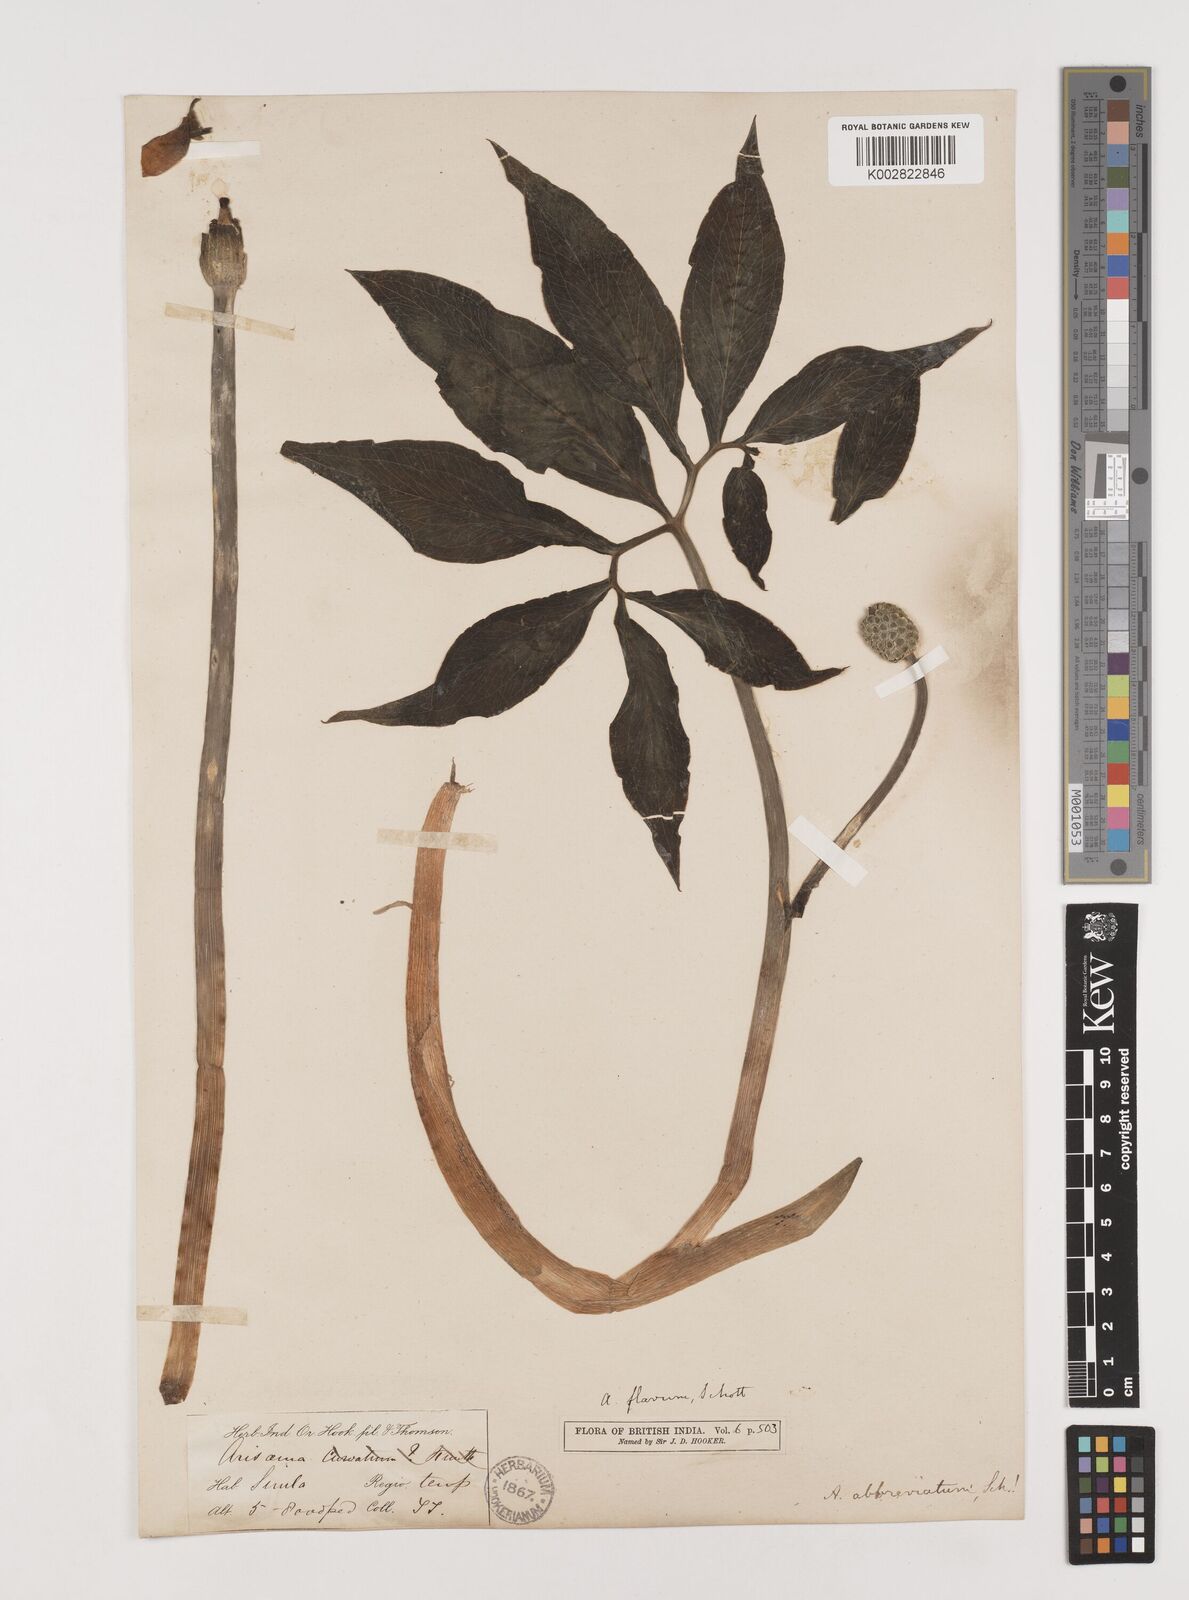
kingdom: Plantae
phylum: Tracheophyta
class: Liliopsida
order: Alismatales
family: Araceae
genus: Arisaema
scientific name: Arisaema flavum
